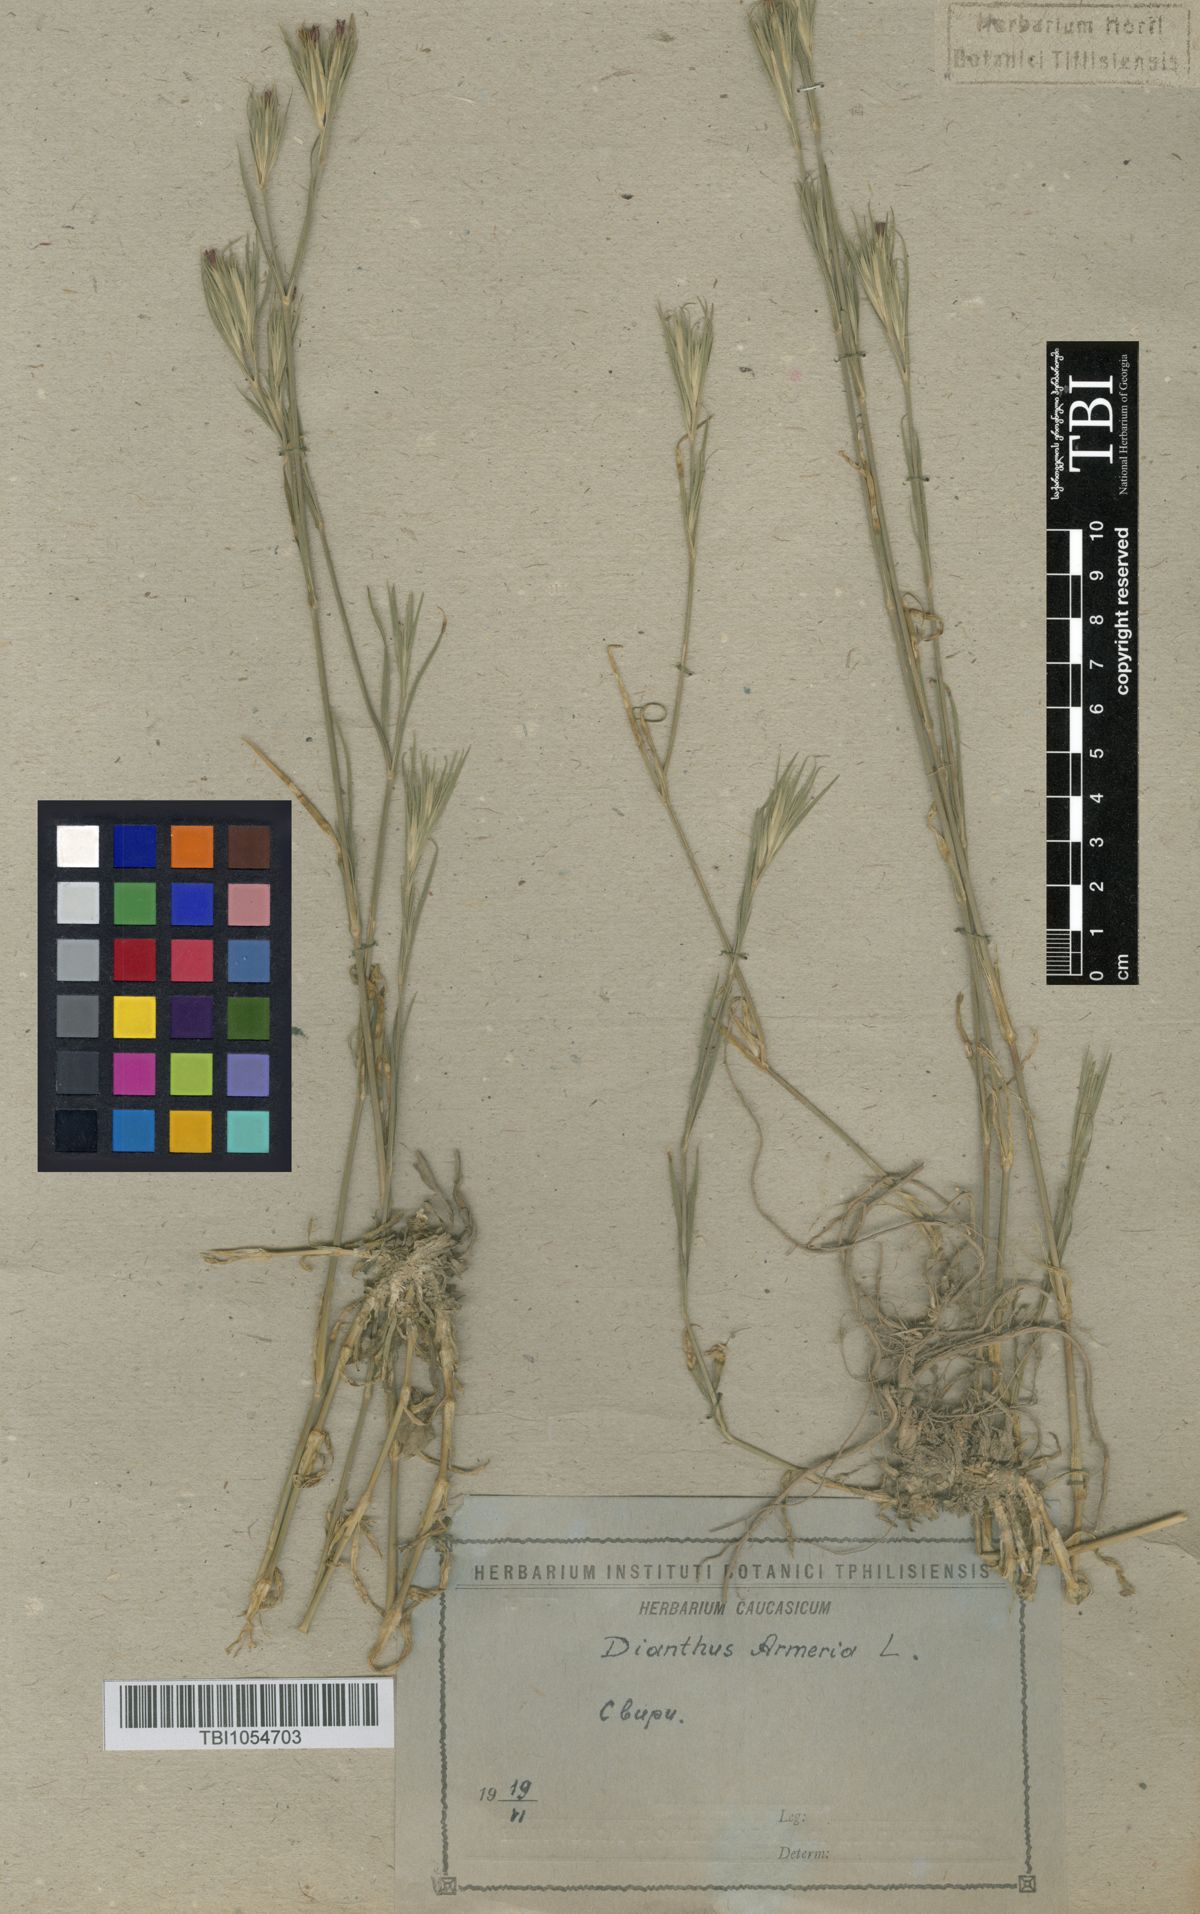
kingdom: Plantae
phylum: Tracheophyta
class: Magnoliopsida
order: Caryophyllales
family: Caryophyllaceae
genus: Dianthus
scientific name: Dianthus armeria
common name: Deptford pink
